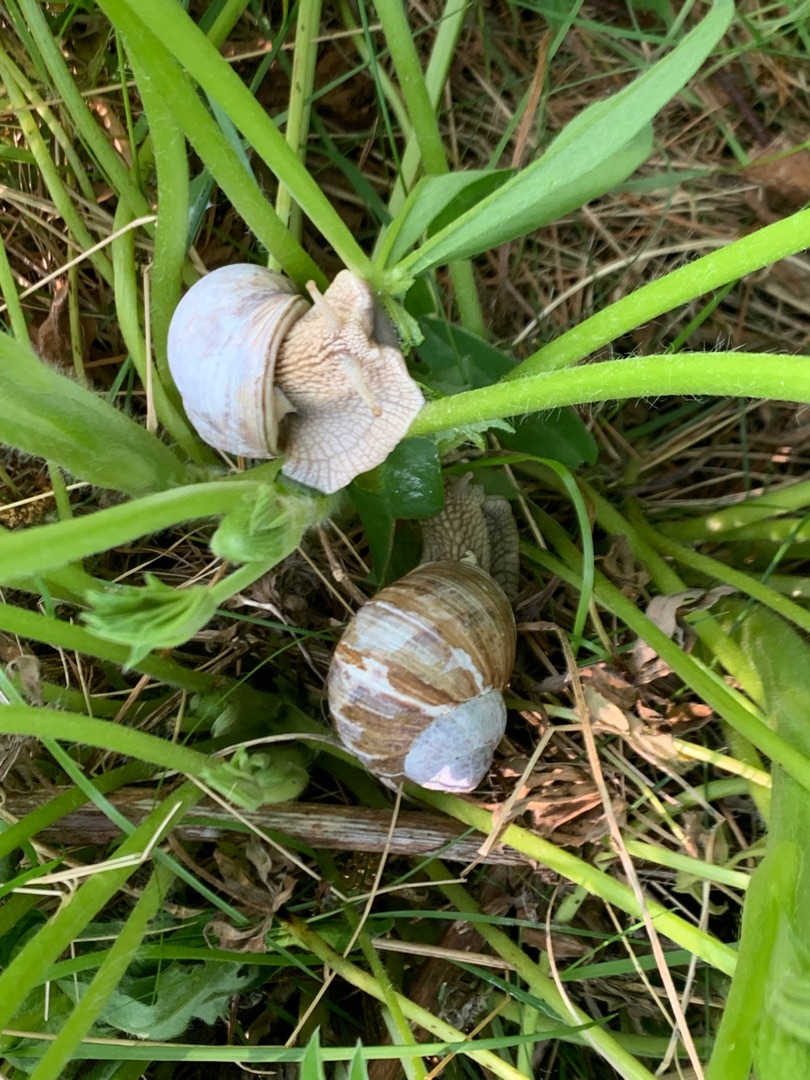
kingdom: Animalia
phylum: Mollusca
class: Gastropoda
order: Stylommatophora
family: Helicidae
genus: Helix
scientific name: Helix pomatia
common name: Vinbjergsnegl
